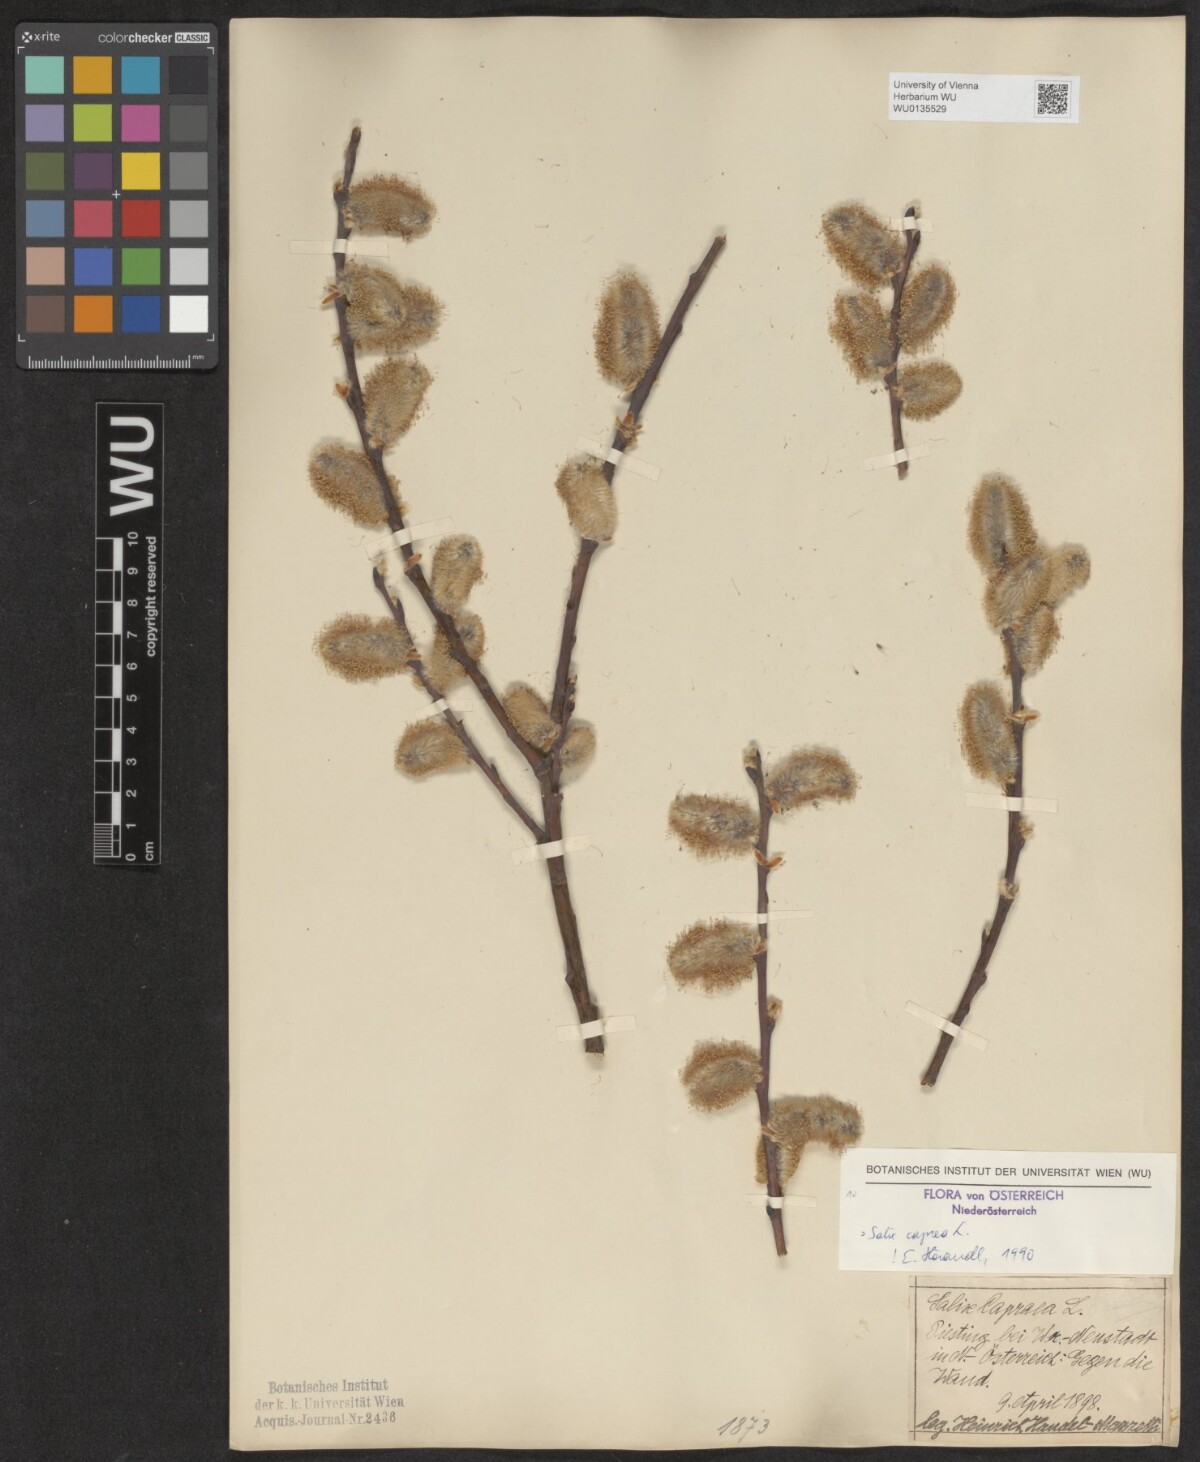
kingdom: Plantae
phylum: Tracheophyta
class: Magnoliopsida
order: Malpighiales
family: Salicaceae
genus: Salix
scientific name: Salix caprea
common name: Goat willow
